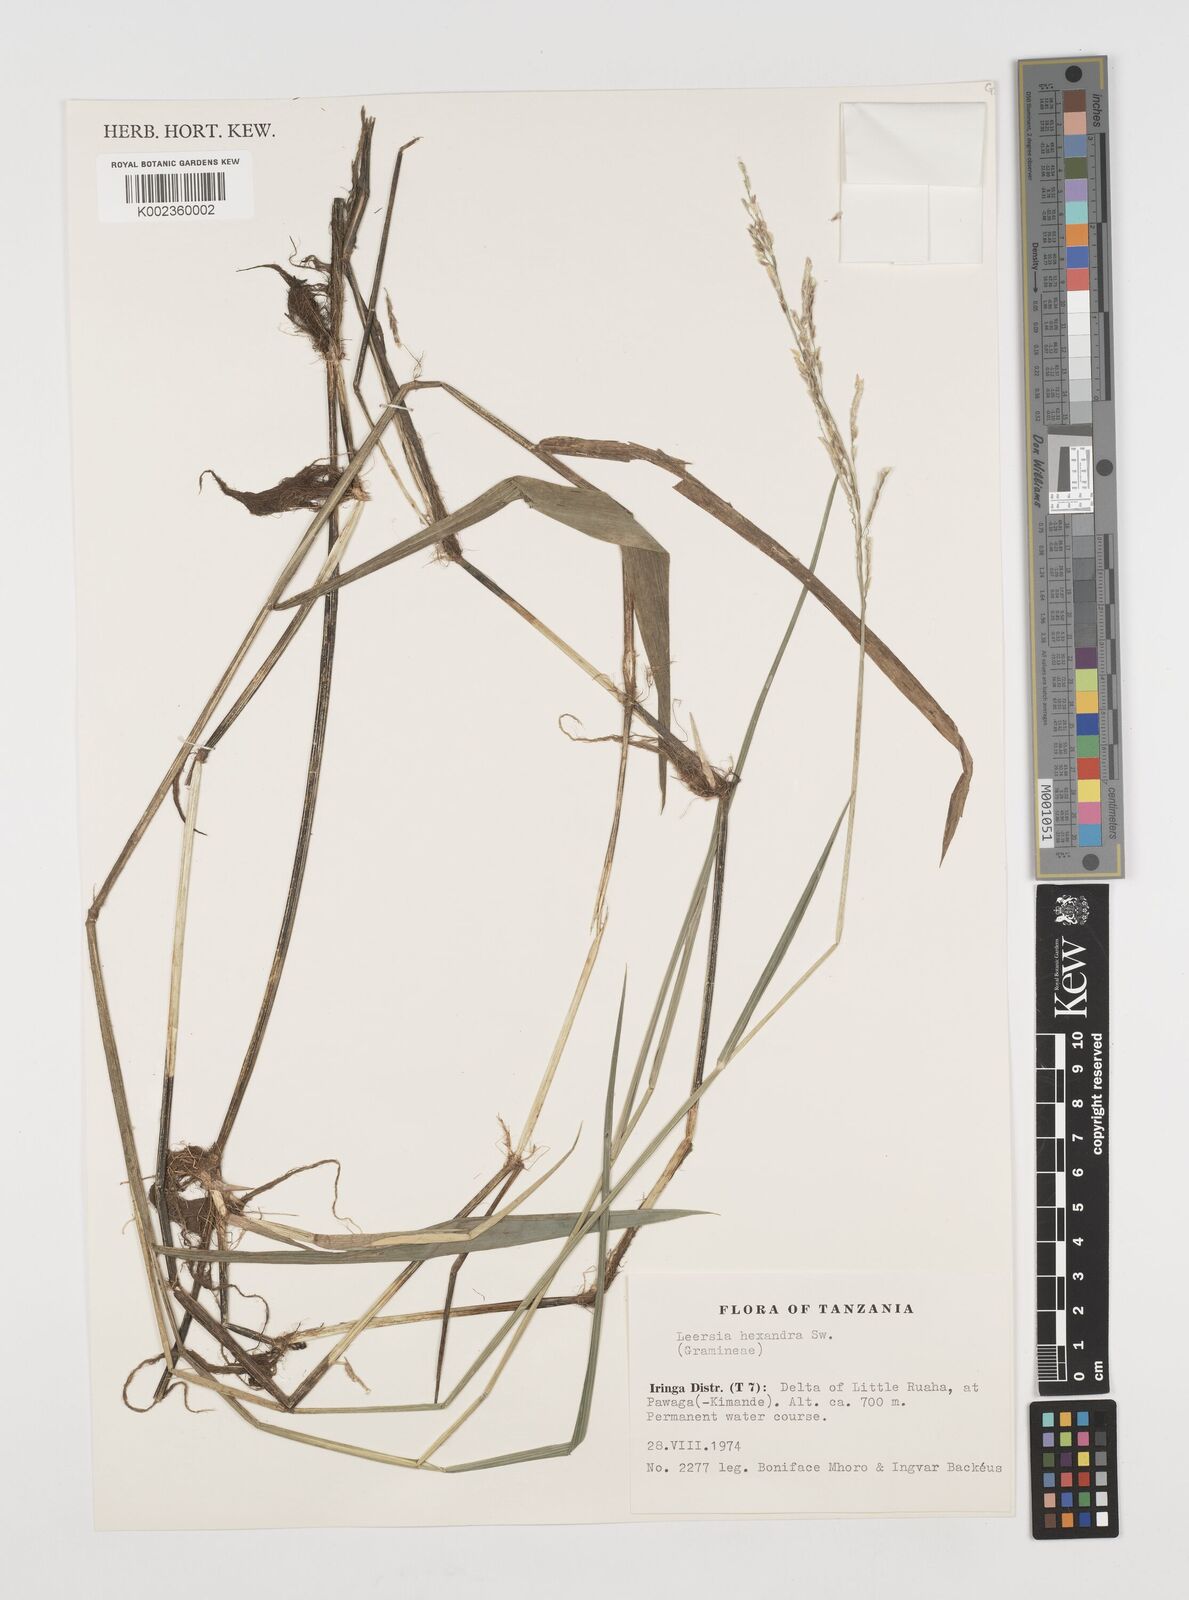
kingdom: Plantae
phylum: Tracheophyta
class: Liliopsida
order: Poales
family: Poaceae
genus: Leersia
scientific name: Leersia hexandra
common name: Southern cut grass
